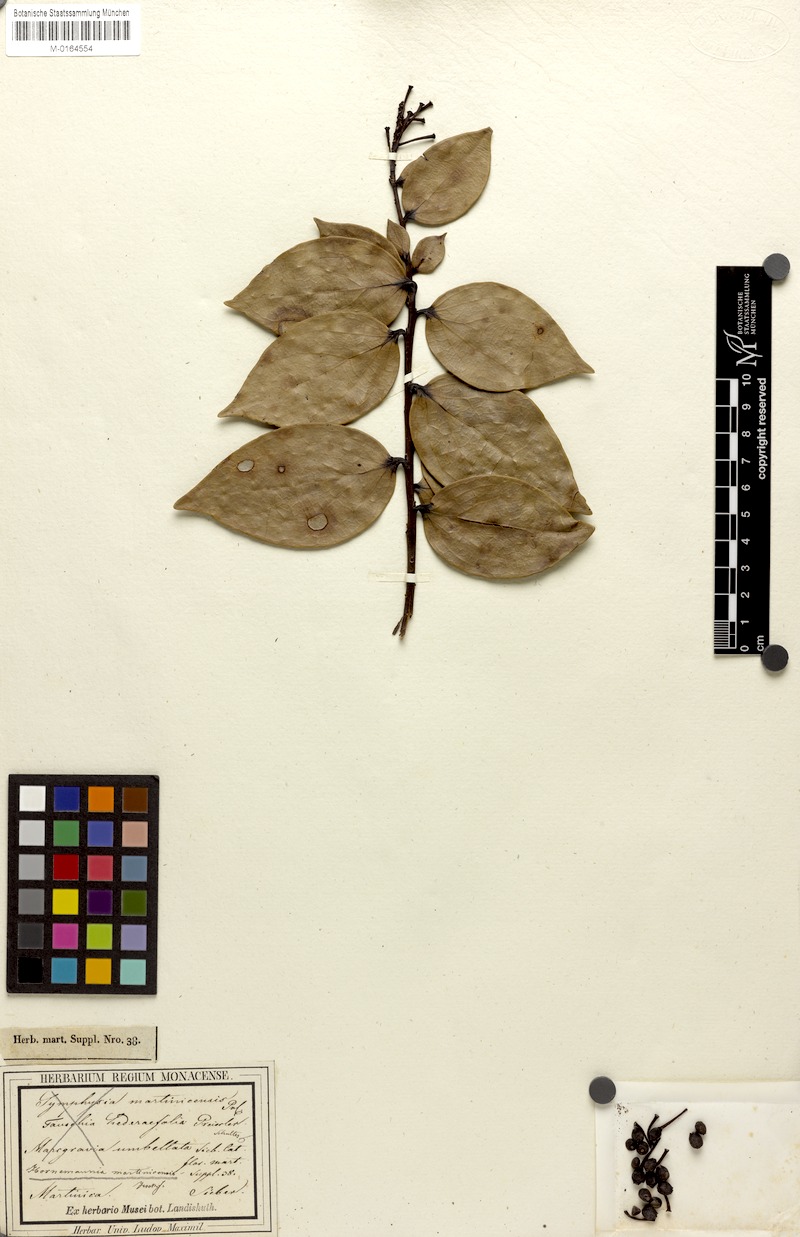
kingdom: Plantae
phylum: Tracheophyta
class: Magnoliopsida
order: Ericales
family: Ericaceae
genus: Symphysia
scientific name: Symphysia racemosa
